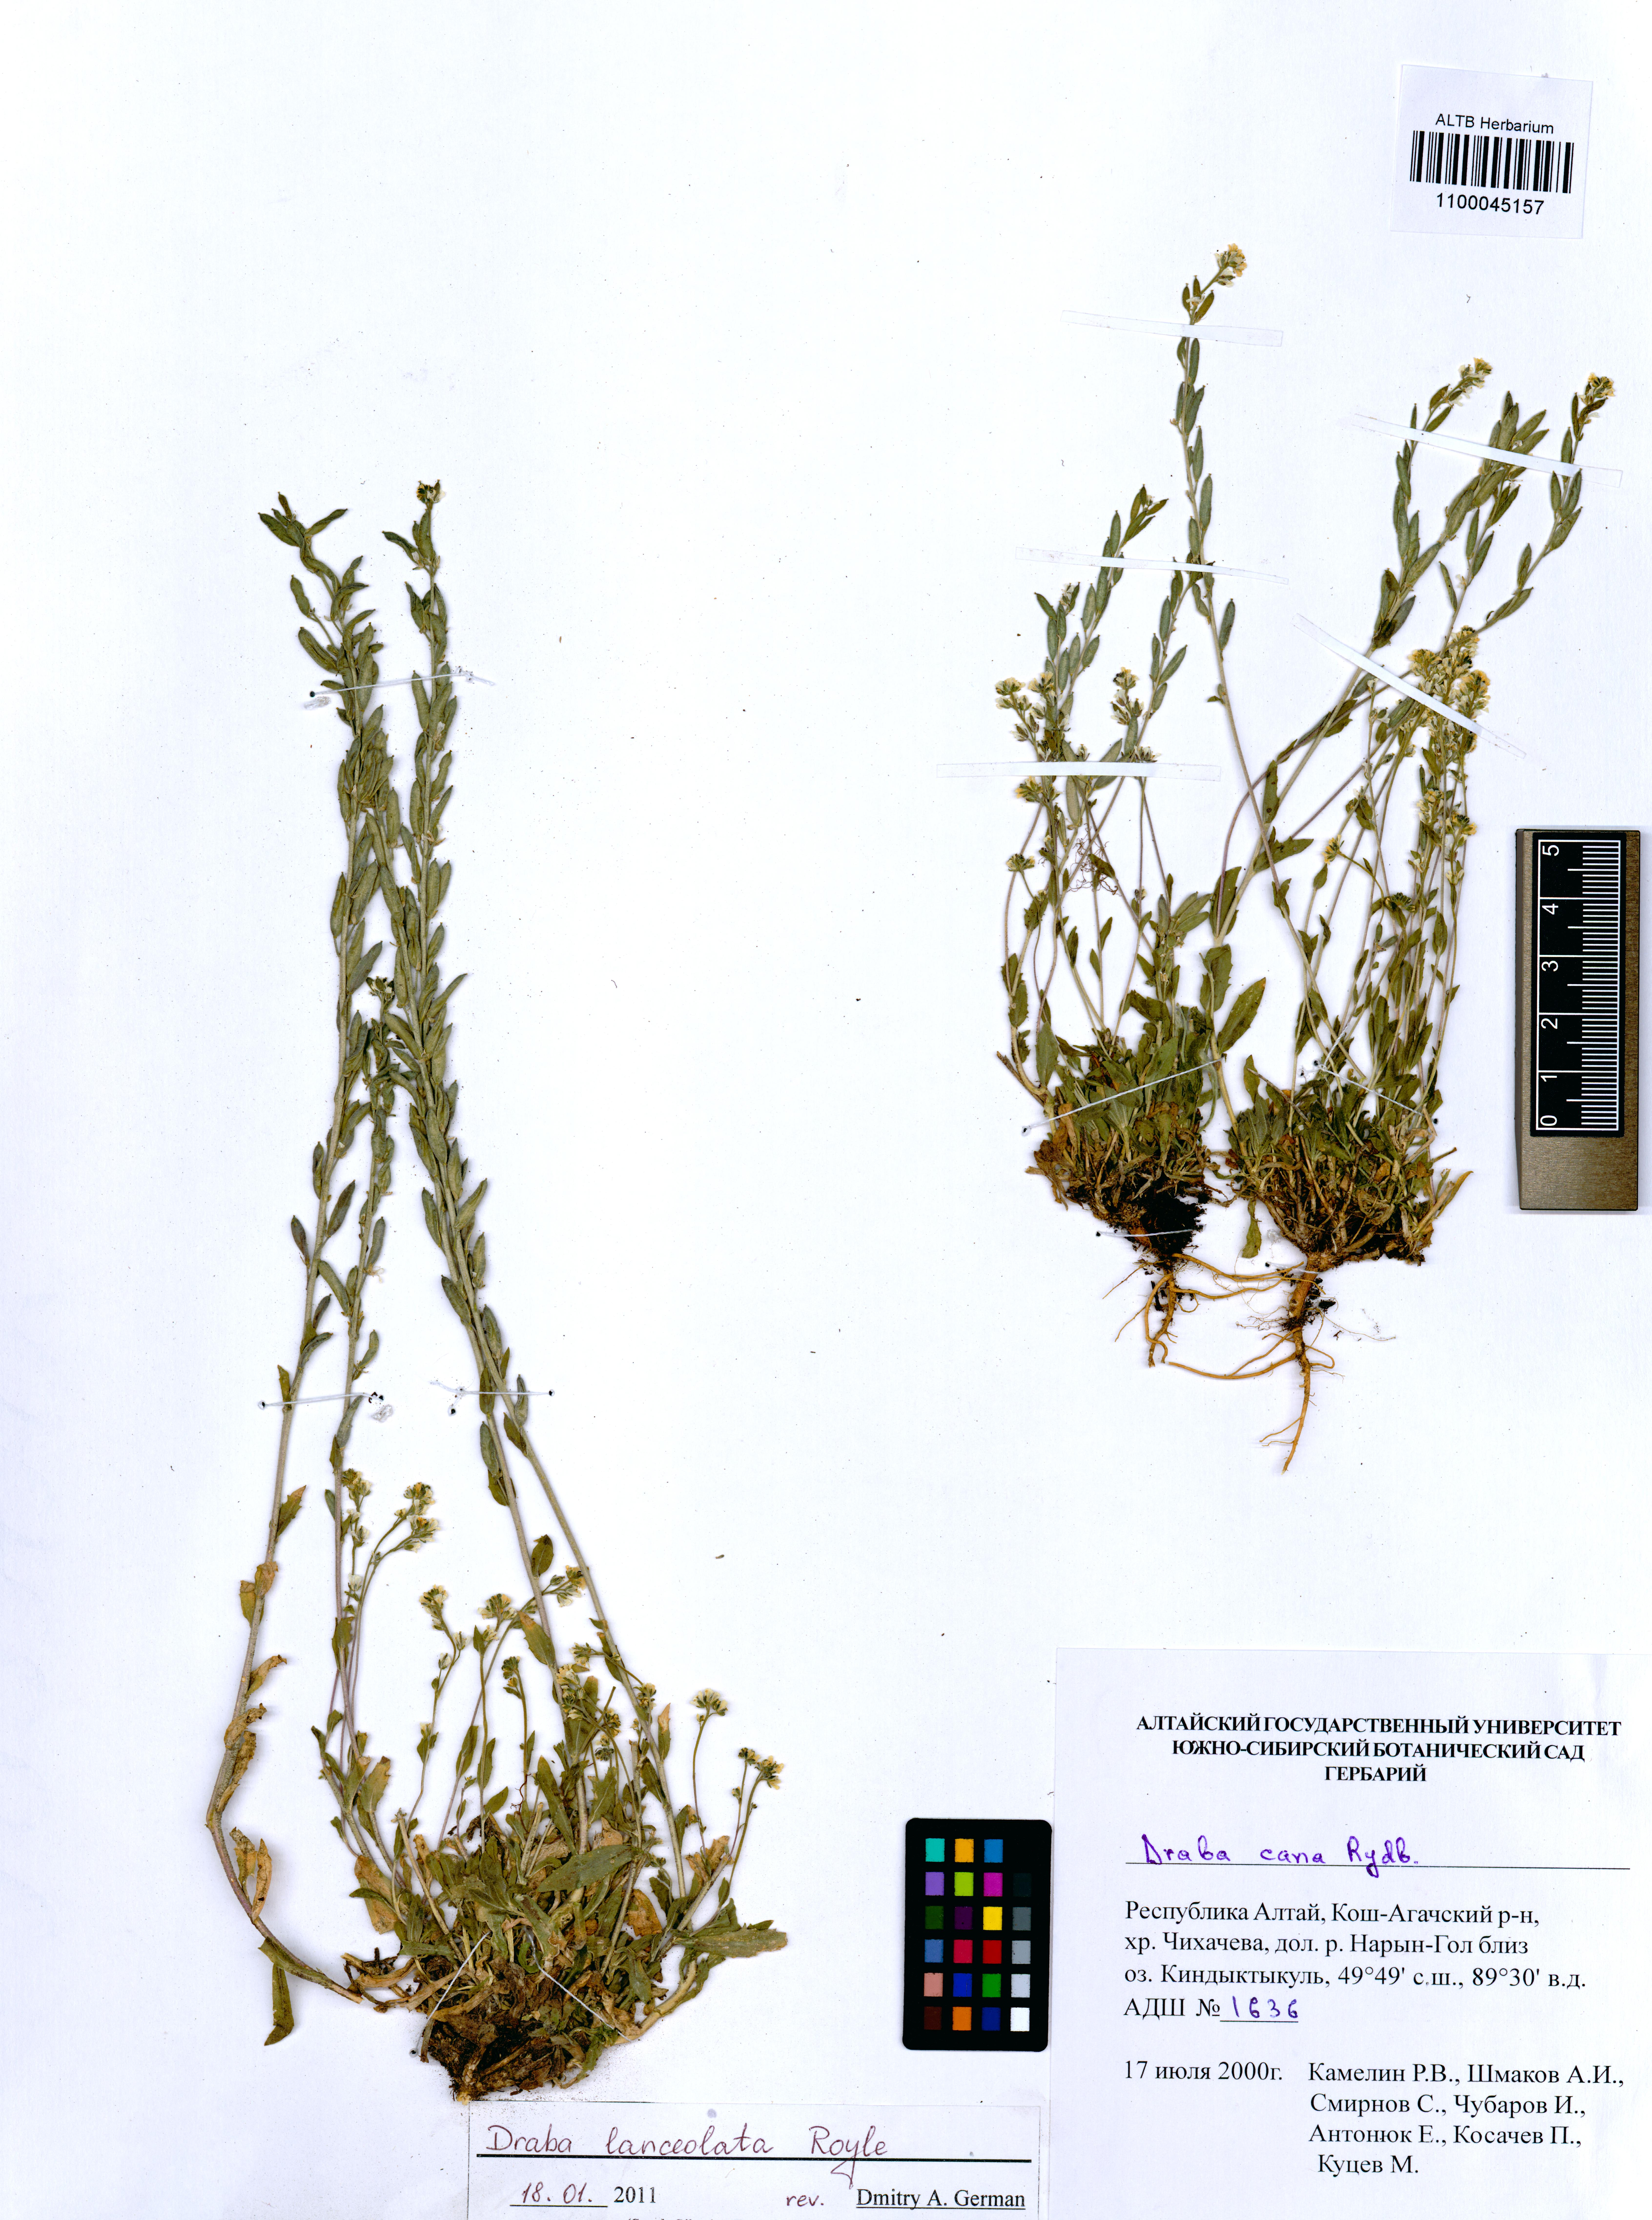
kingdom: Plantae
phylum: Tracheophyta
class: Magnoliopsida
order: Brassicales
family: Brassicaceae
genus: Draba
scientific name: Draba lanceolata
